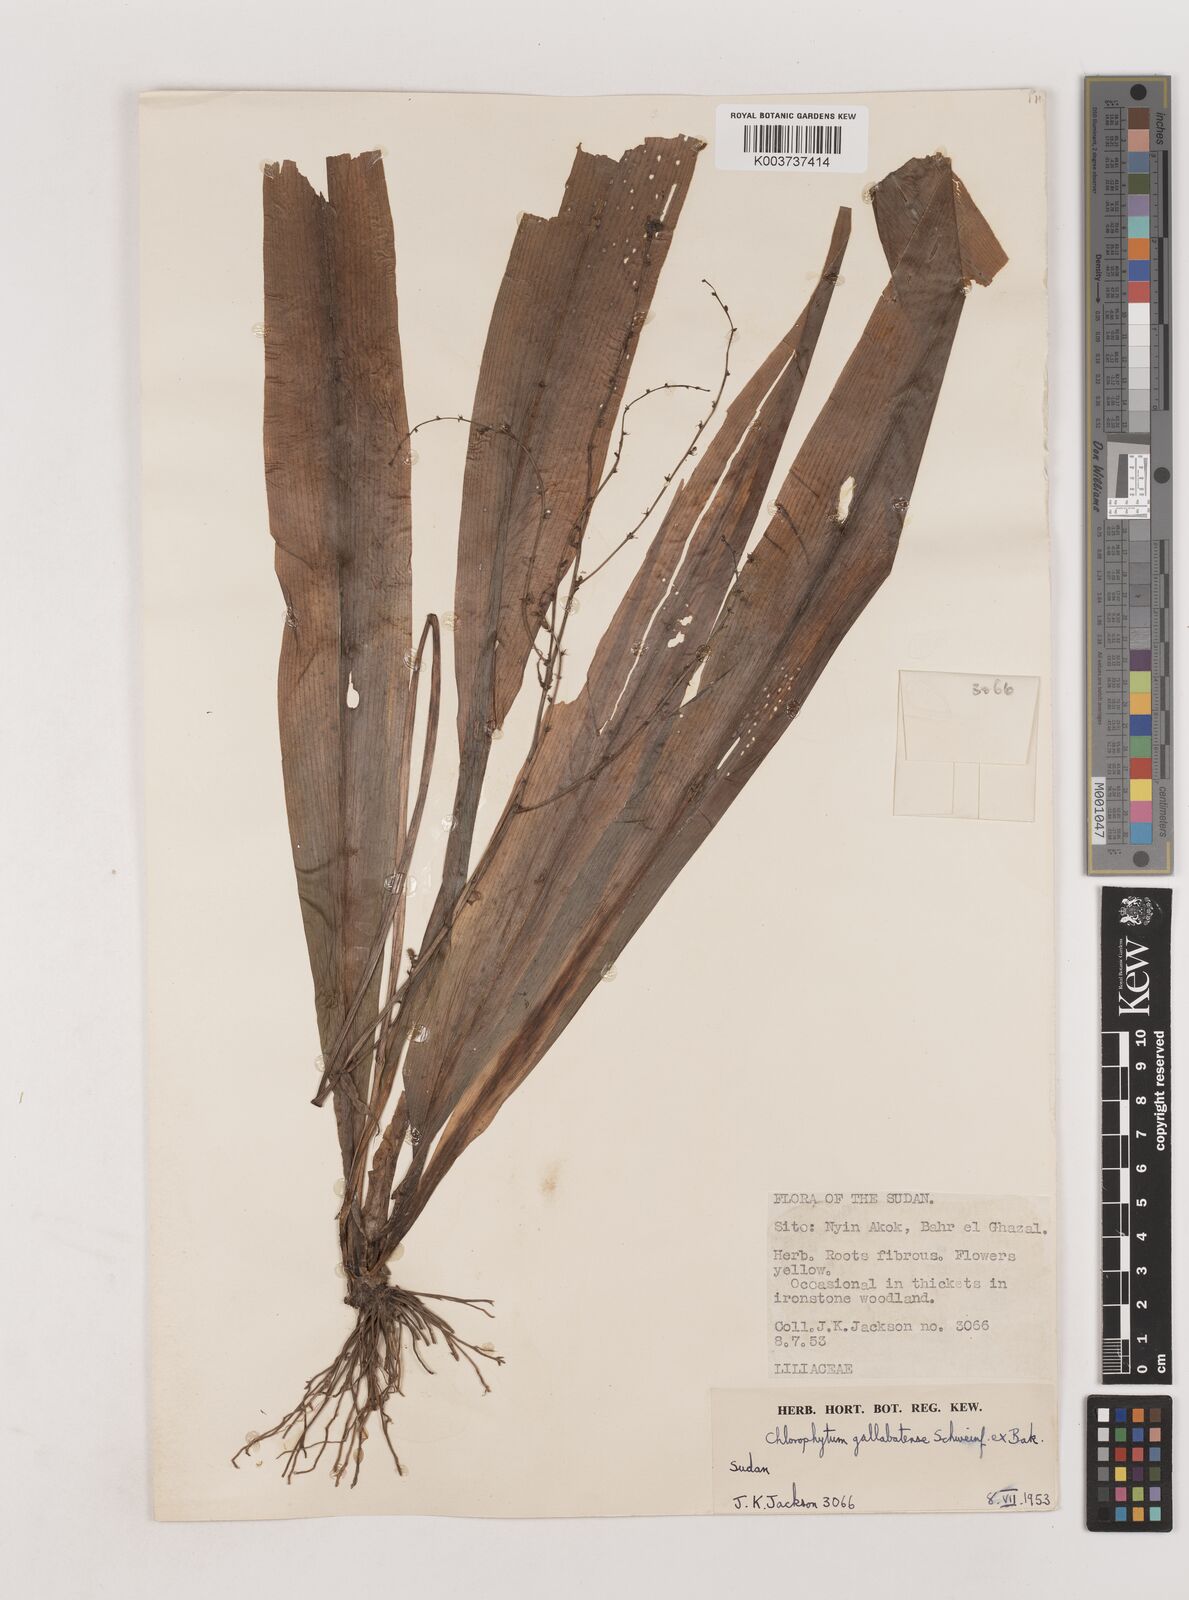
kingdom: Plantae
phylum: Tracheophyta
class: Liliopsida
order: Asparagales
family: Asparagaceae
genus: Chlorophytum
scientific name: Chlorophytum gallabatense
